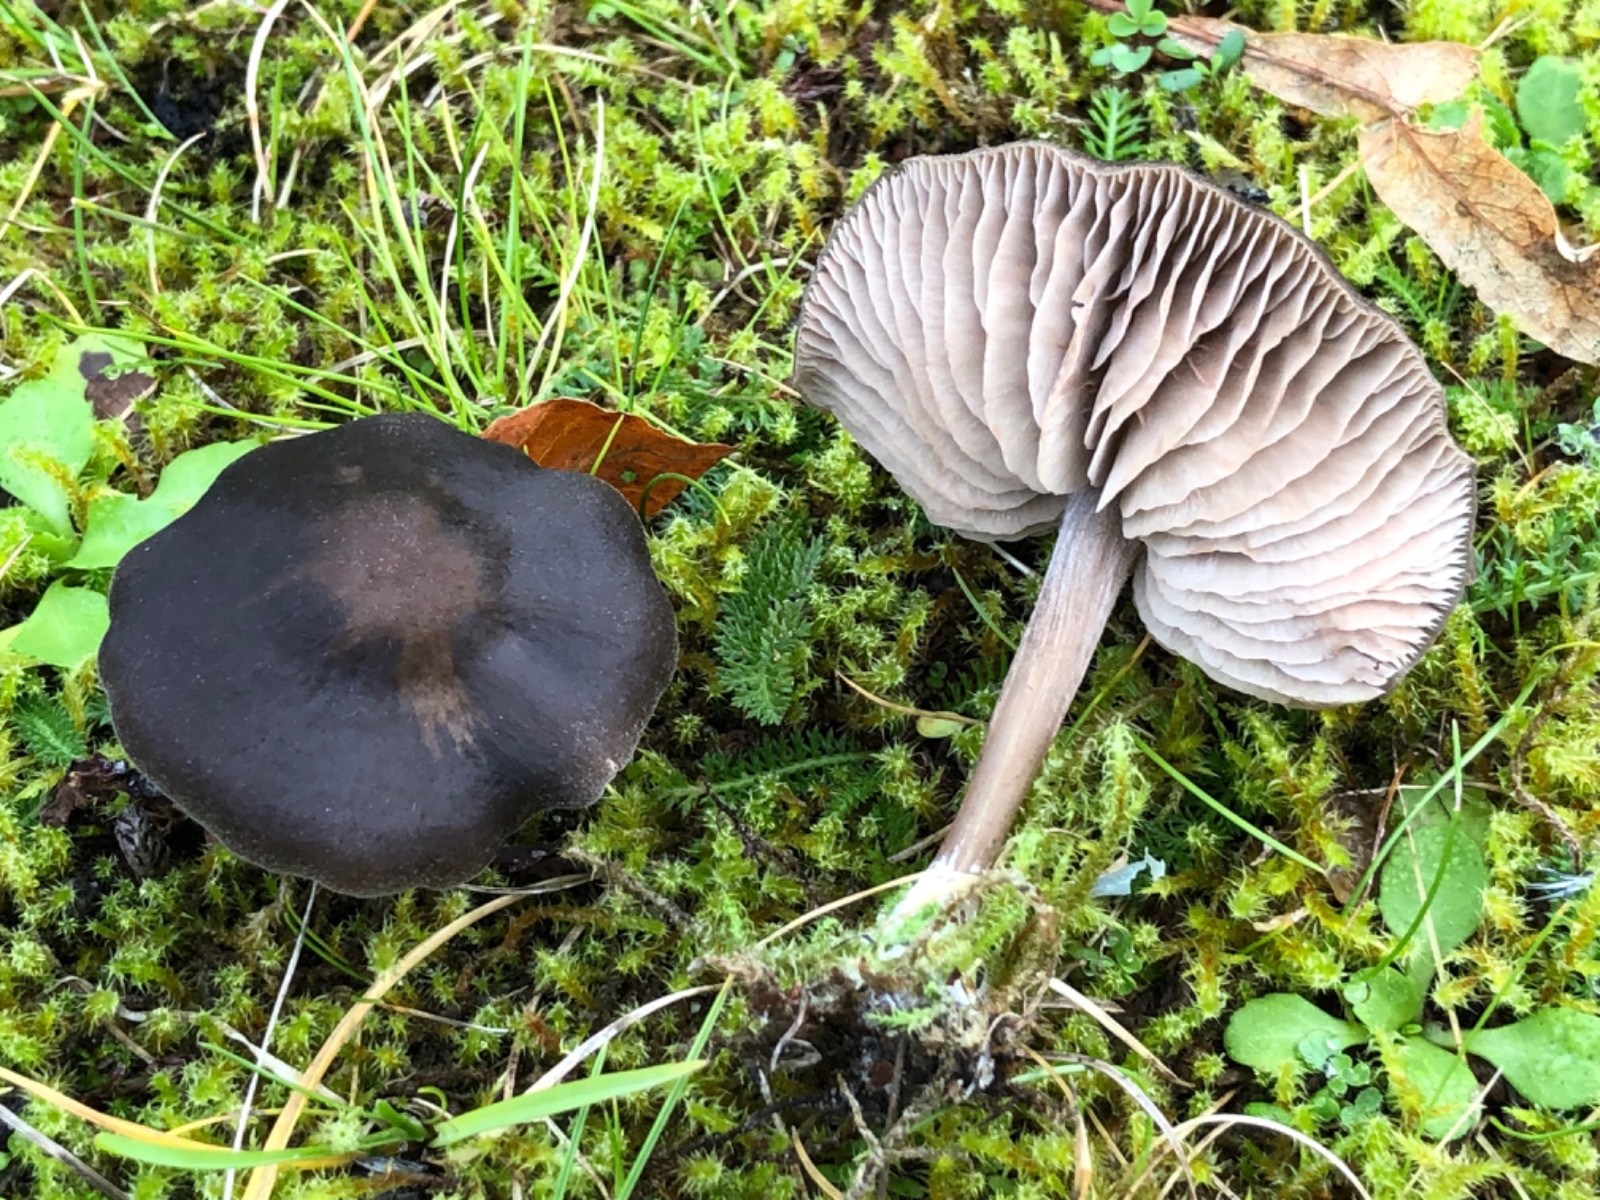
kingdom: Fungi
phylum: Basidiomycota
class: Agaricomycetes
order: Agaricales
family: Entolomataceae
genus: Entoloma
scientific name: Entoloma
